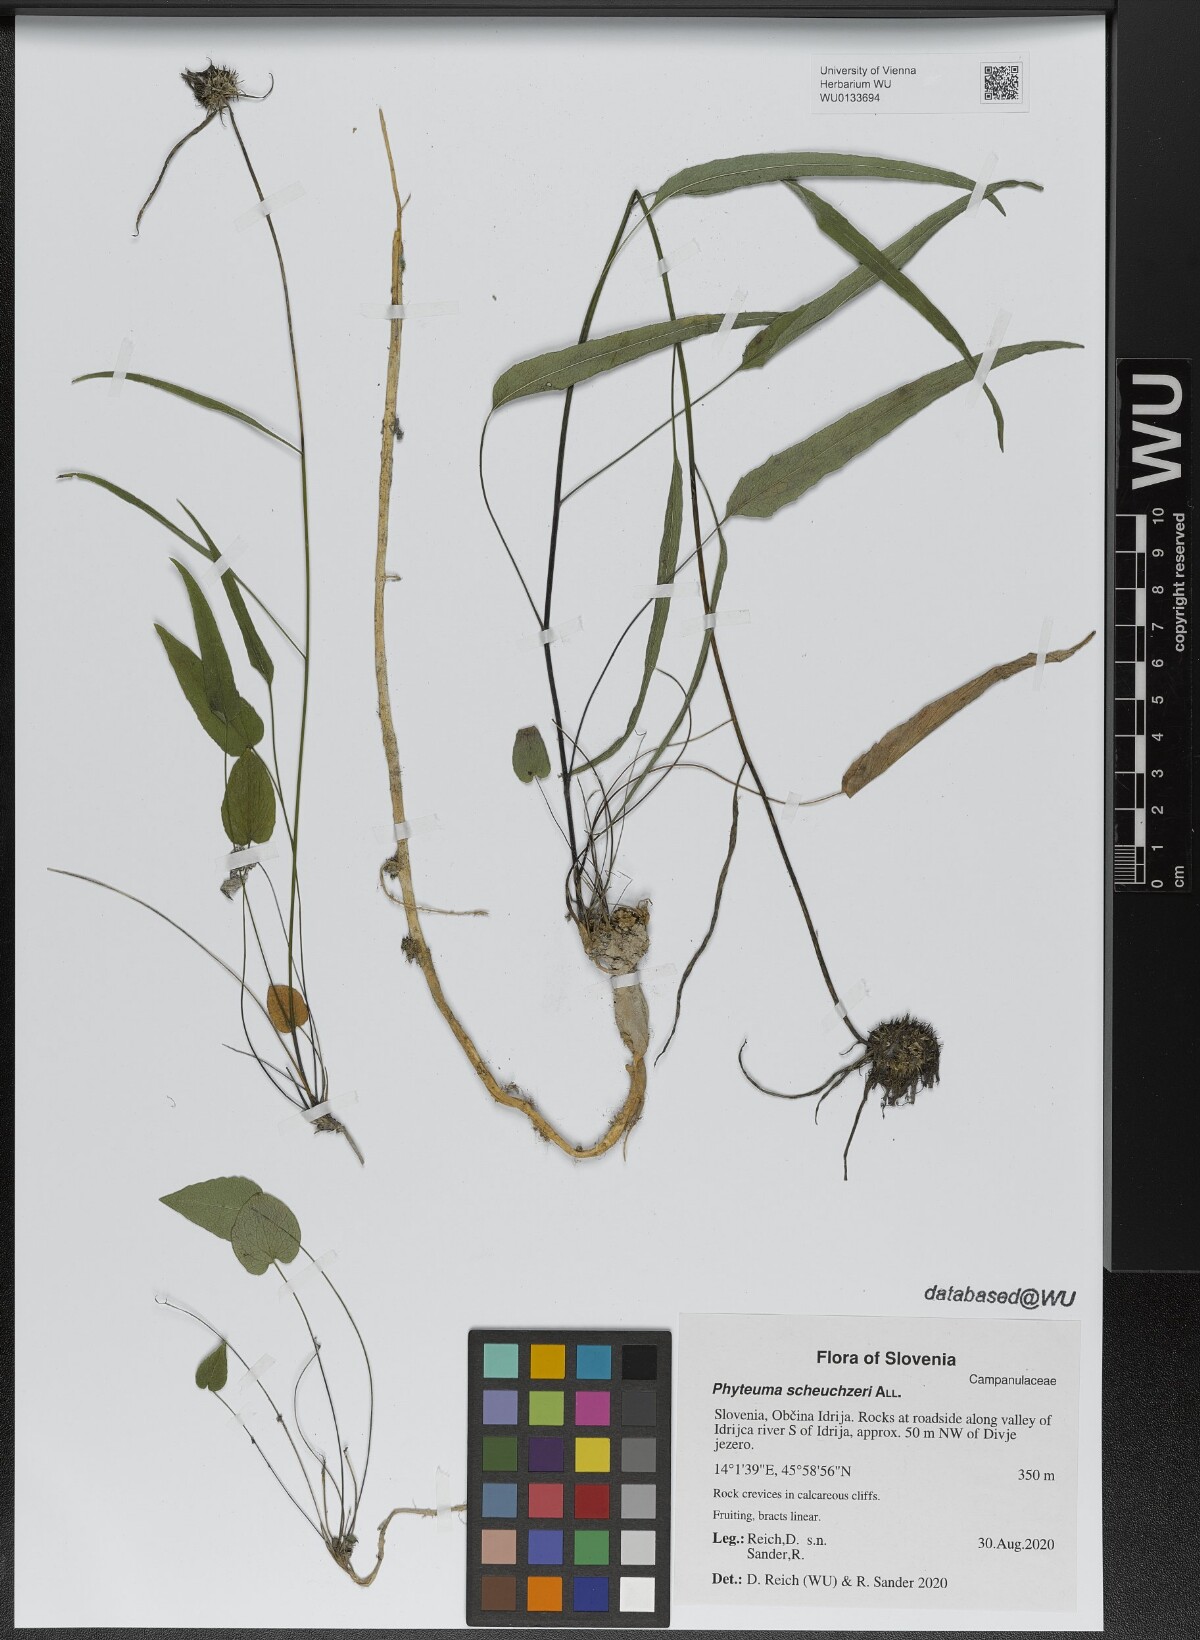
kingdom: Plantae
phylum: Tracheophyta
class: Magnoliopsida
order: Asterales
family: Campanulaceae
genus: Phyteuma
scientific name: Phyteuma scheuchzeri
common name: Oxford rampion
